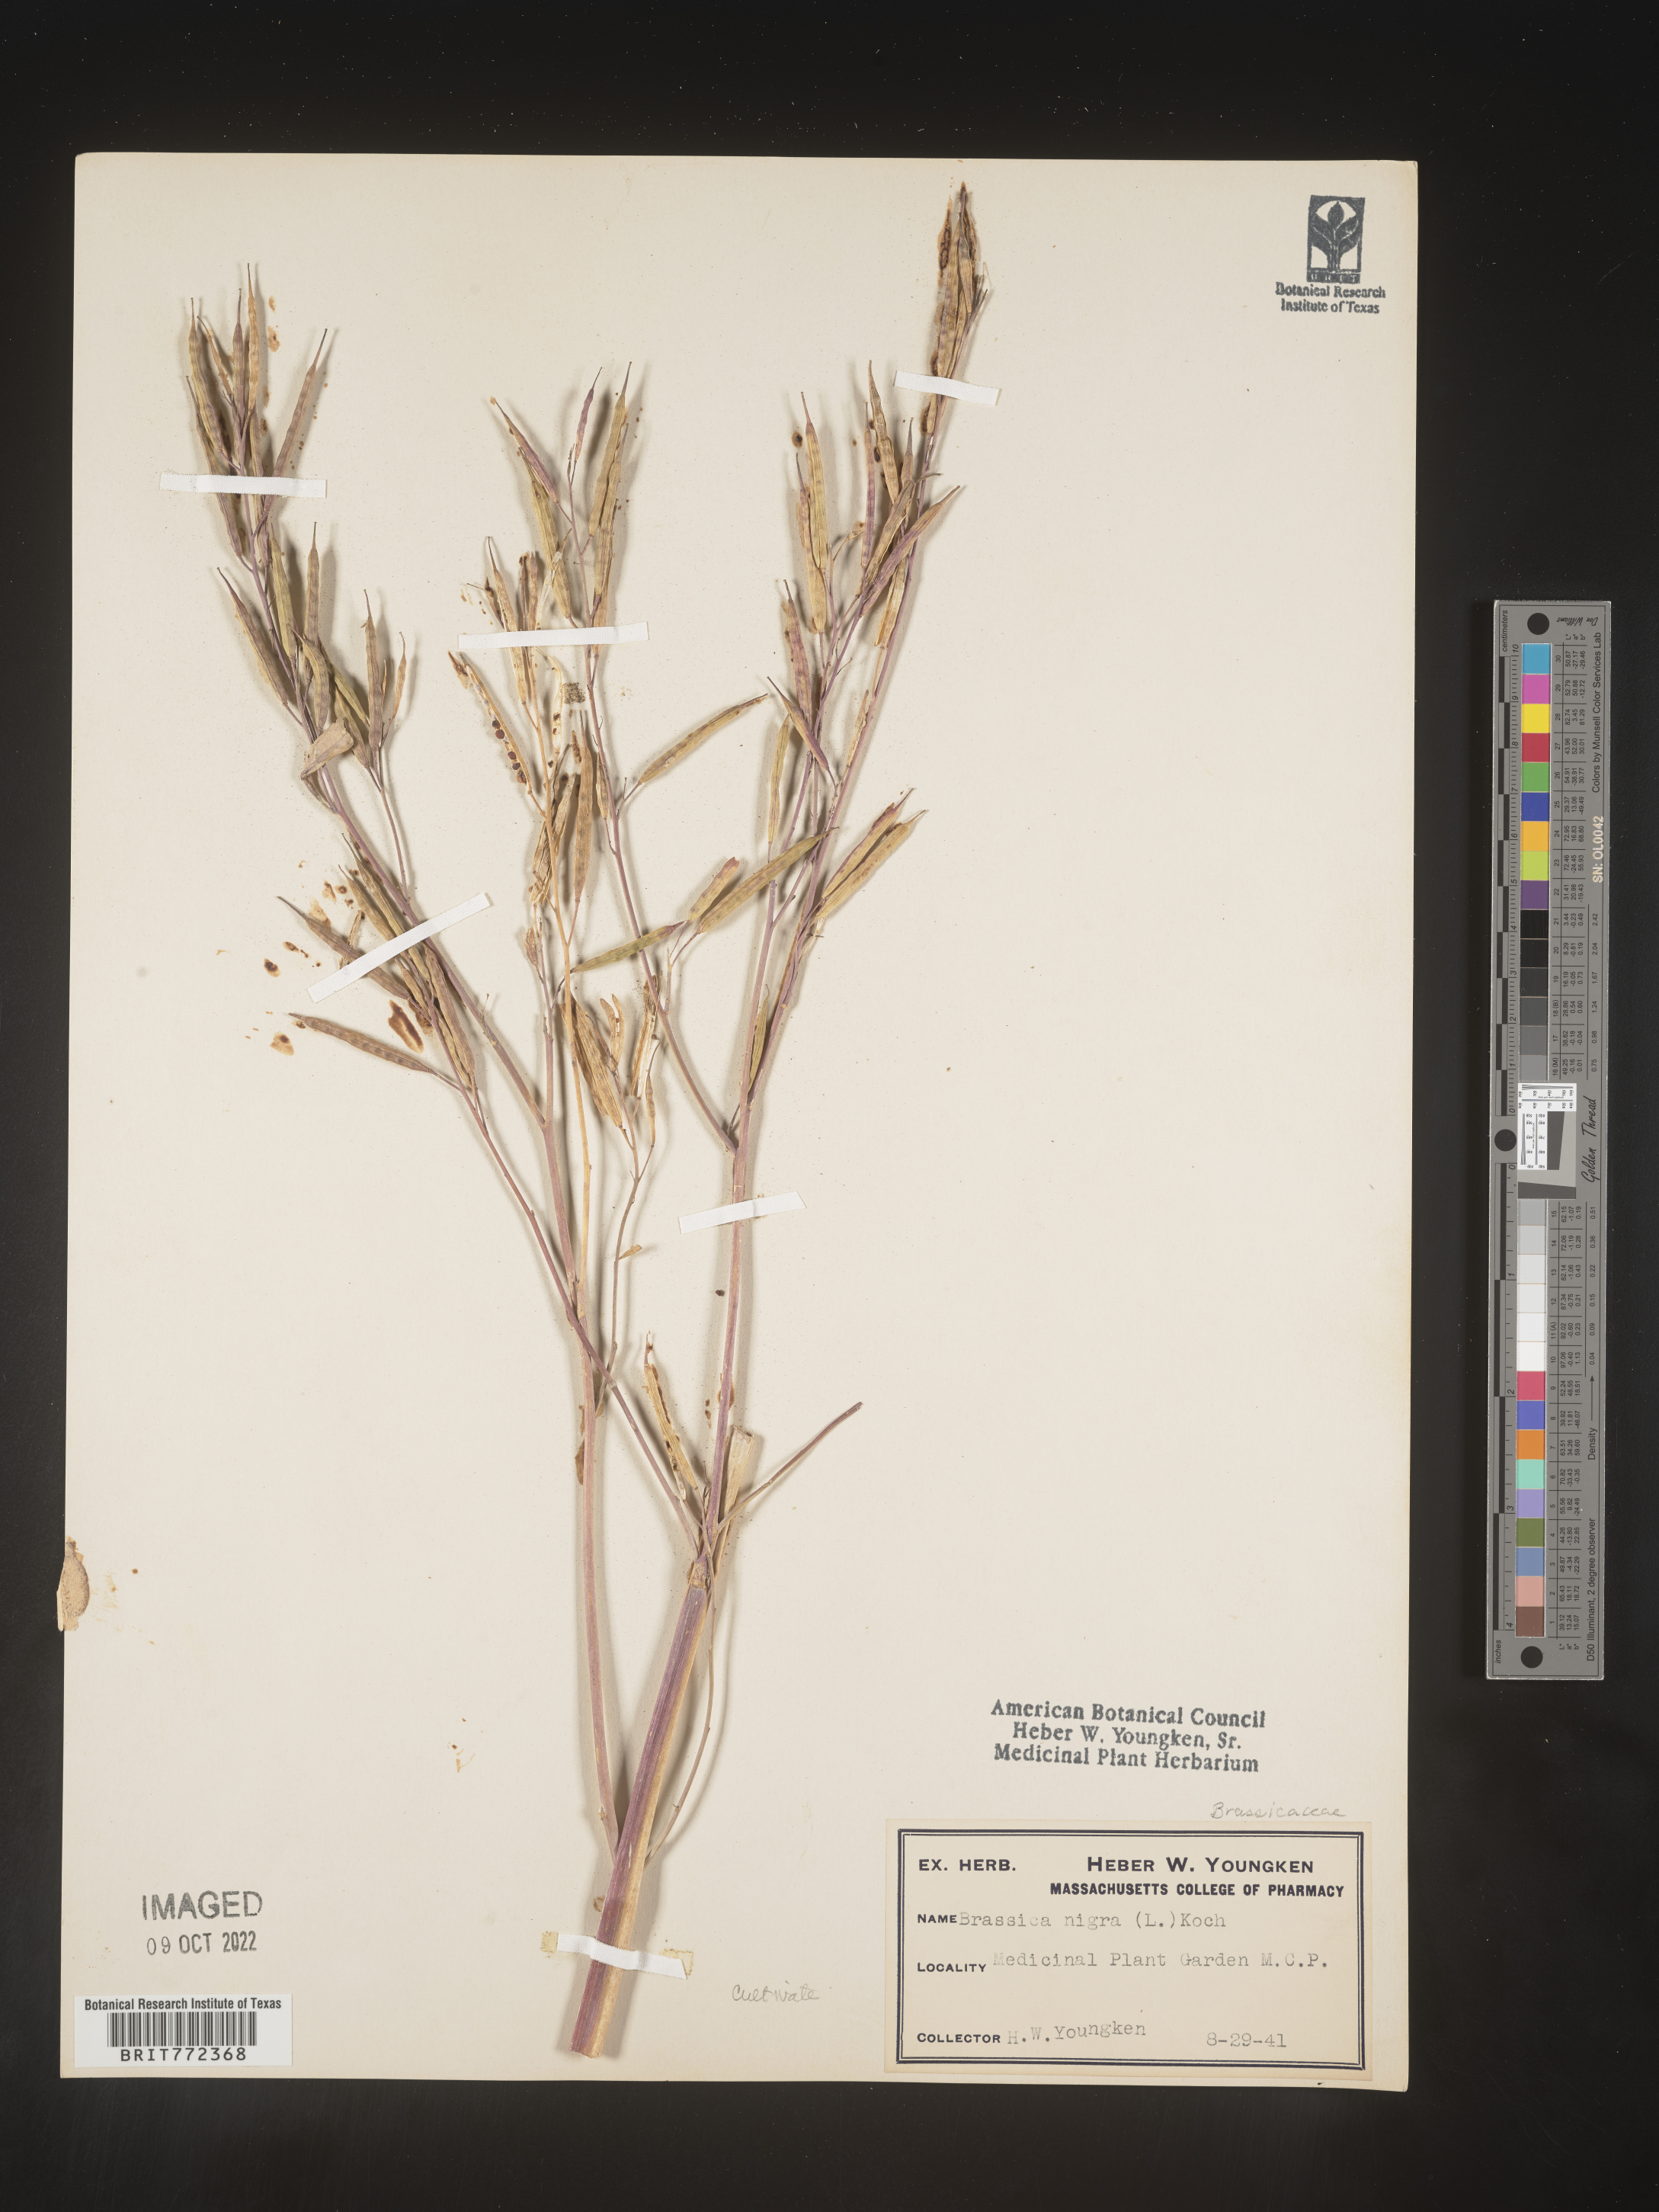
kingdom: Plantae
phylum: Tracheophyta
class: Magnoliopsida
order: Brassicales
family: Brassicaceae
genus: Brassica
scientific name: Brassica
